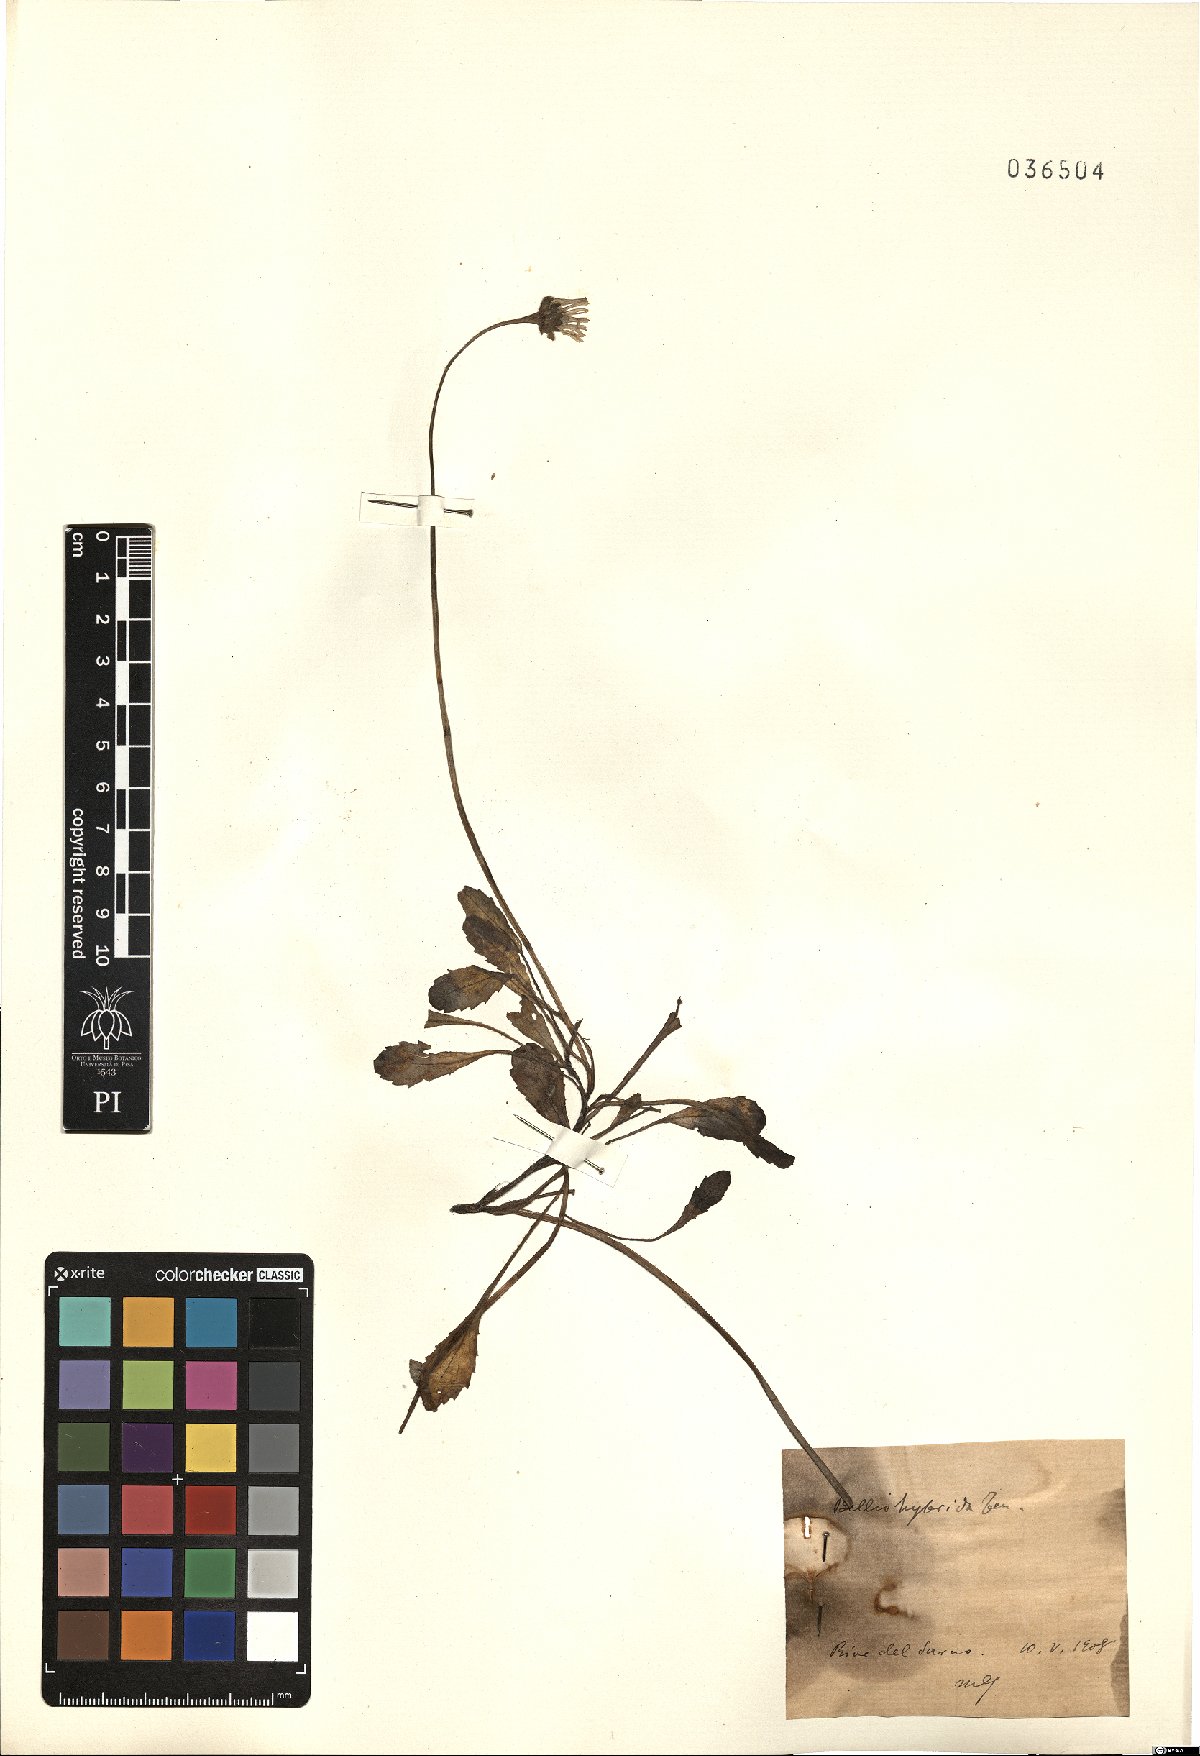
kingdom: Plantae
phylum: Tracheophyta
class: Magnoliopsida
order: Asterales
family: Asteraceae
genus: Bellis
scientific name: Bellis perennis
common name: Lawndaisy
